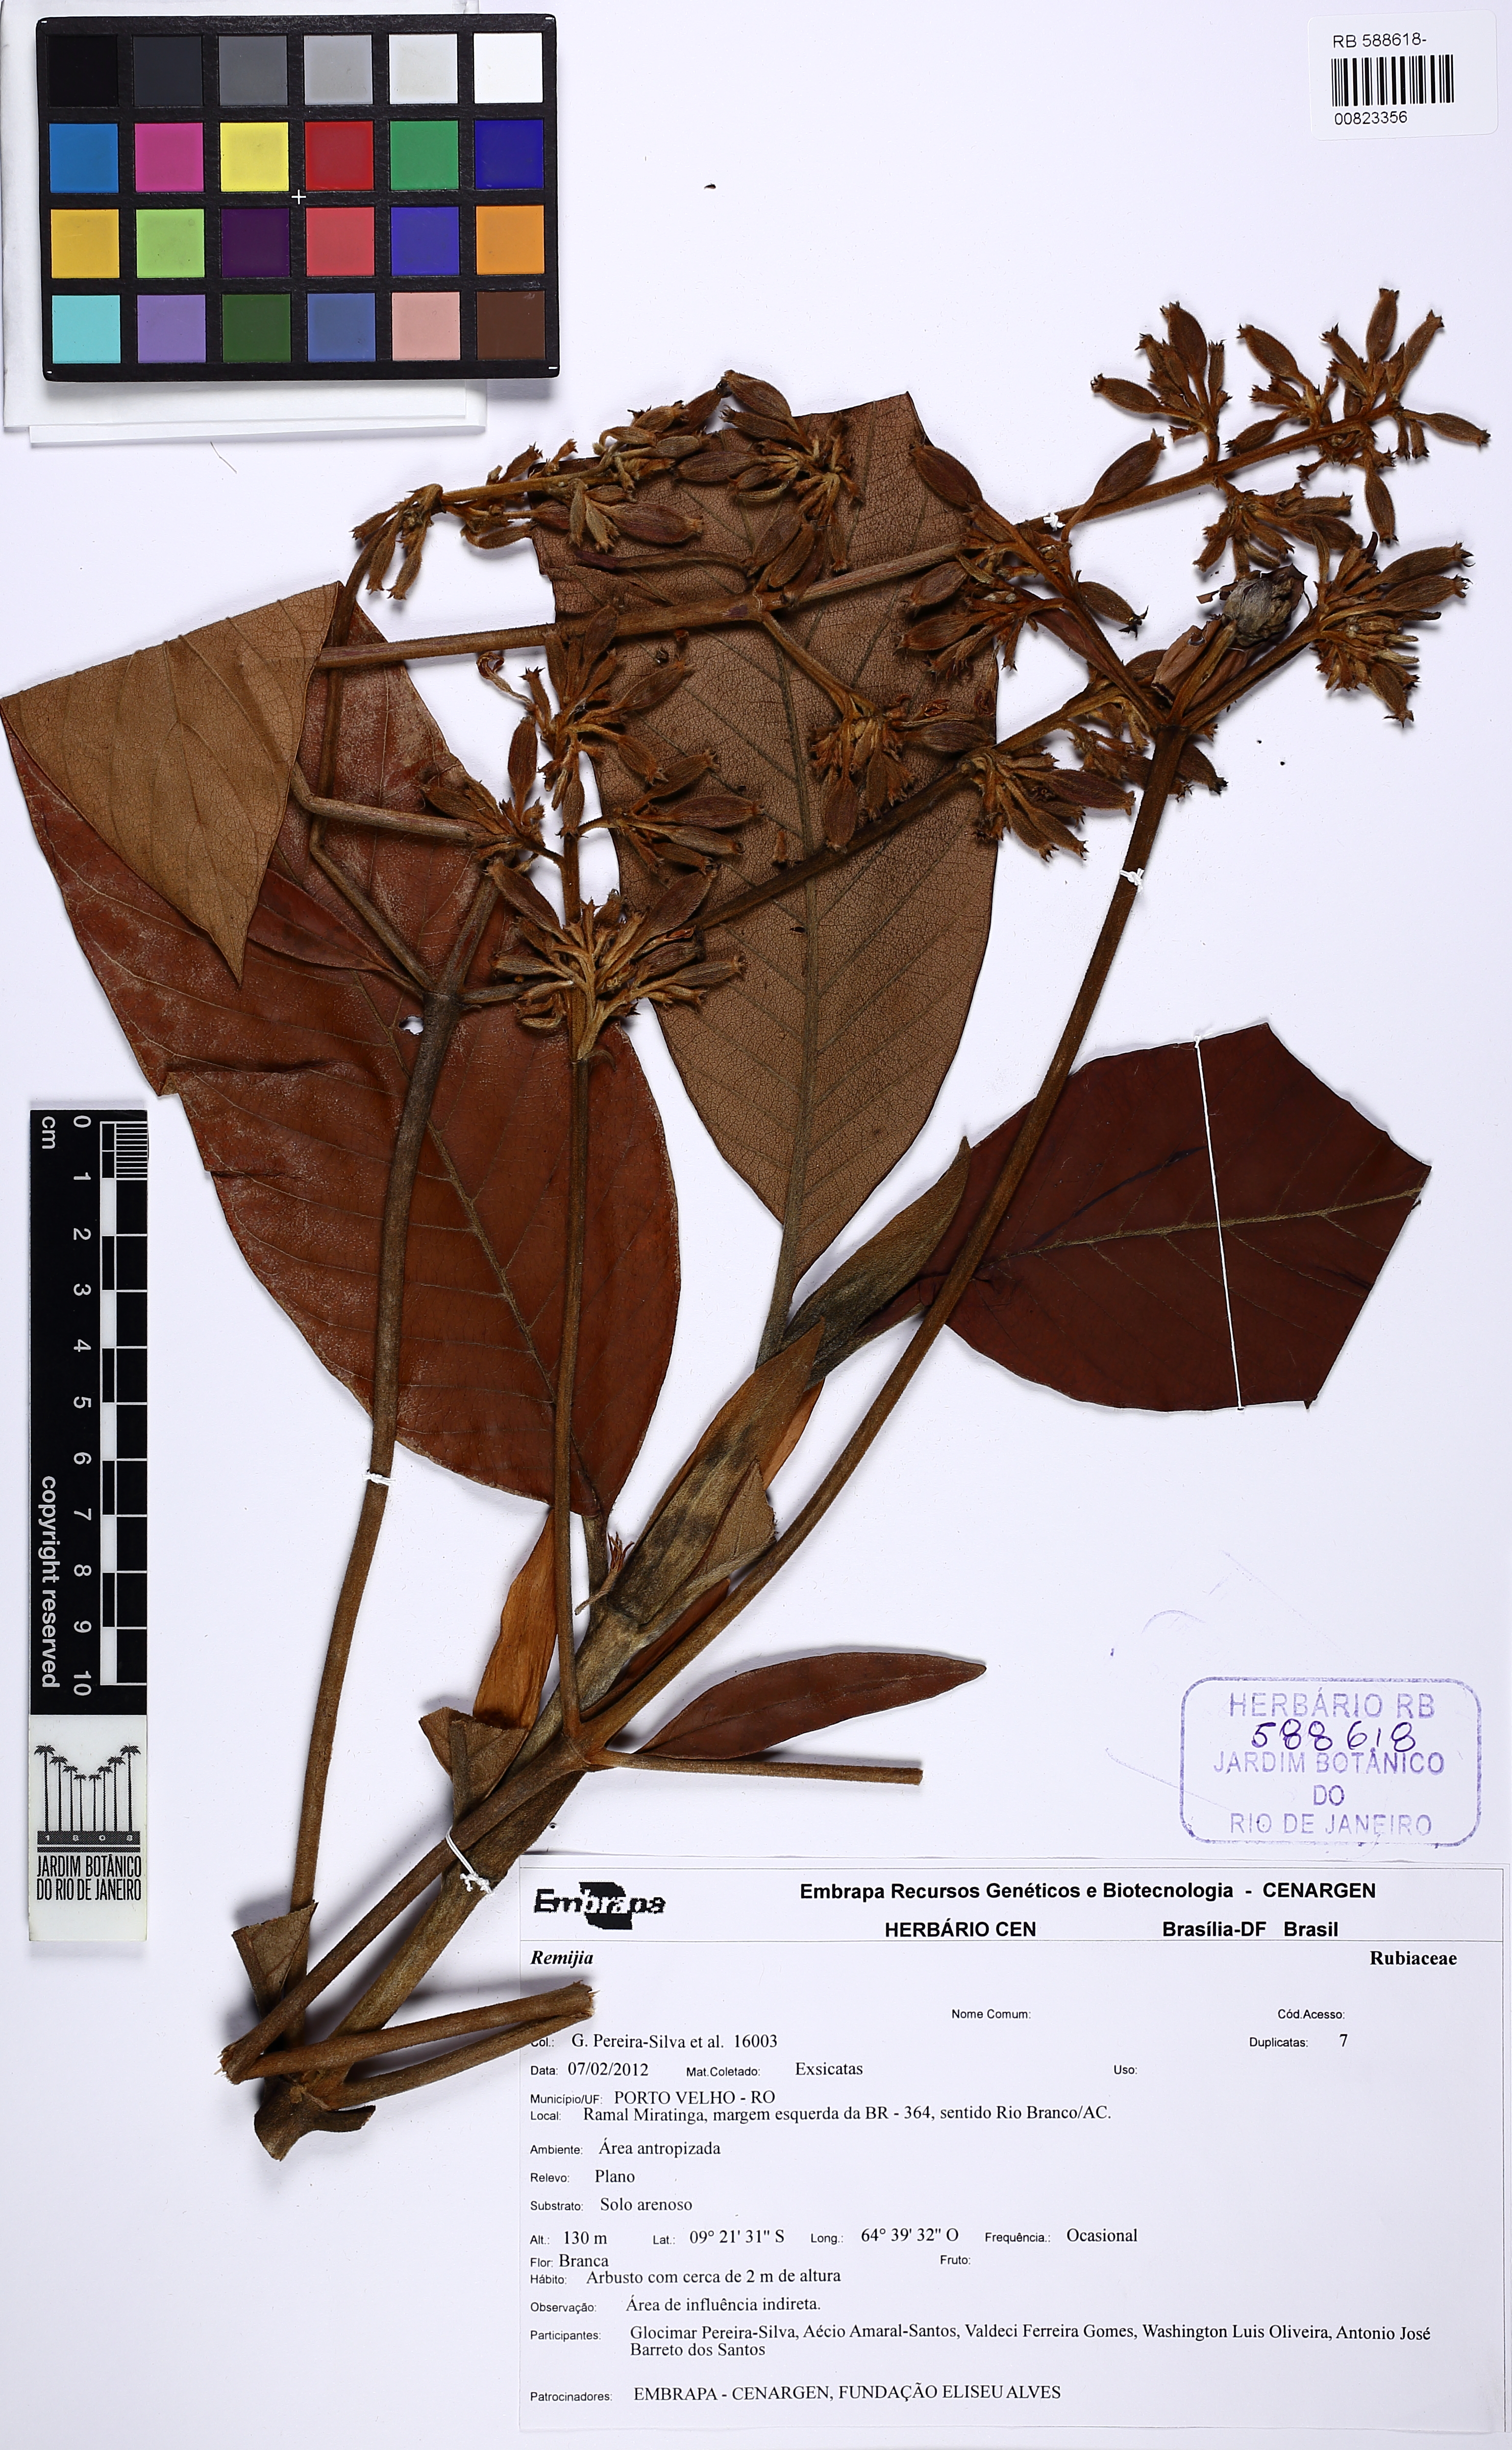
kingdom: Plantae
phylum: Tracheophyta
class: Magnoliopsida
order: Gentianales
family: Rubiaceae
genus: Remijia
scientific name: Remijia firmula
